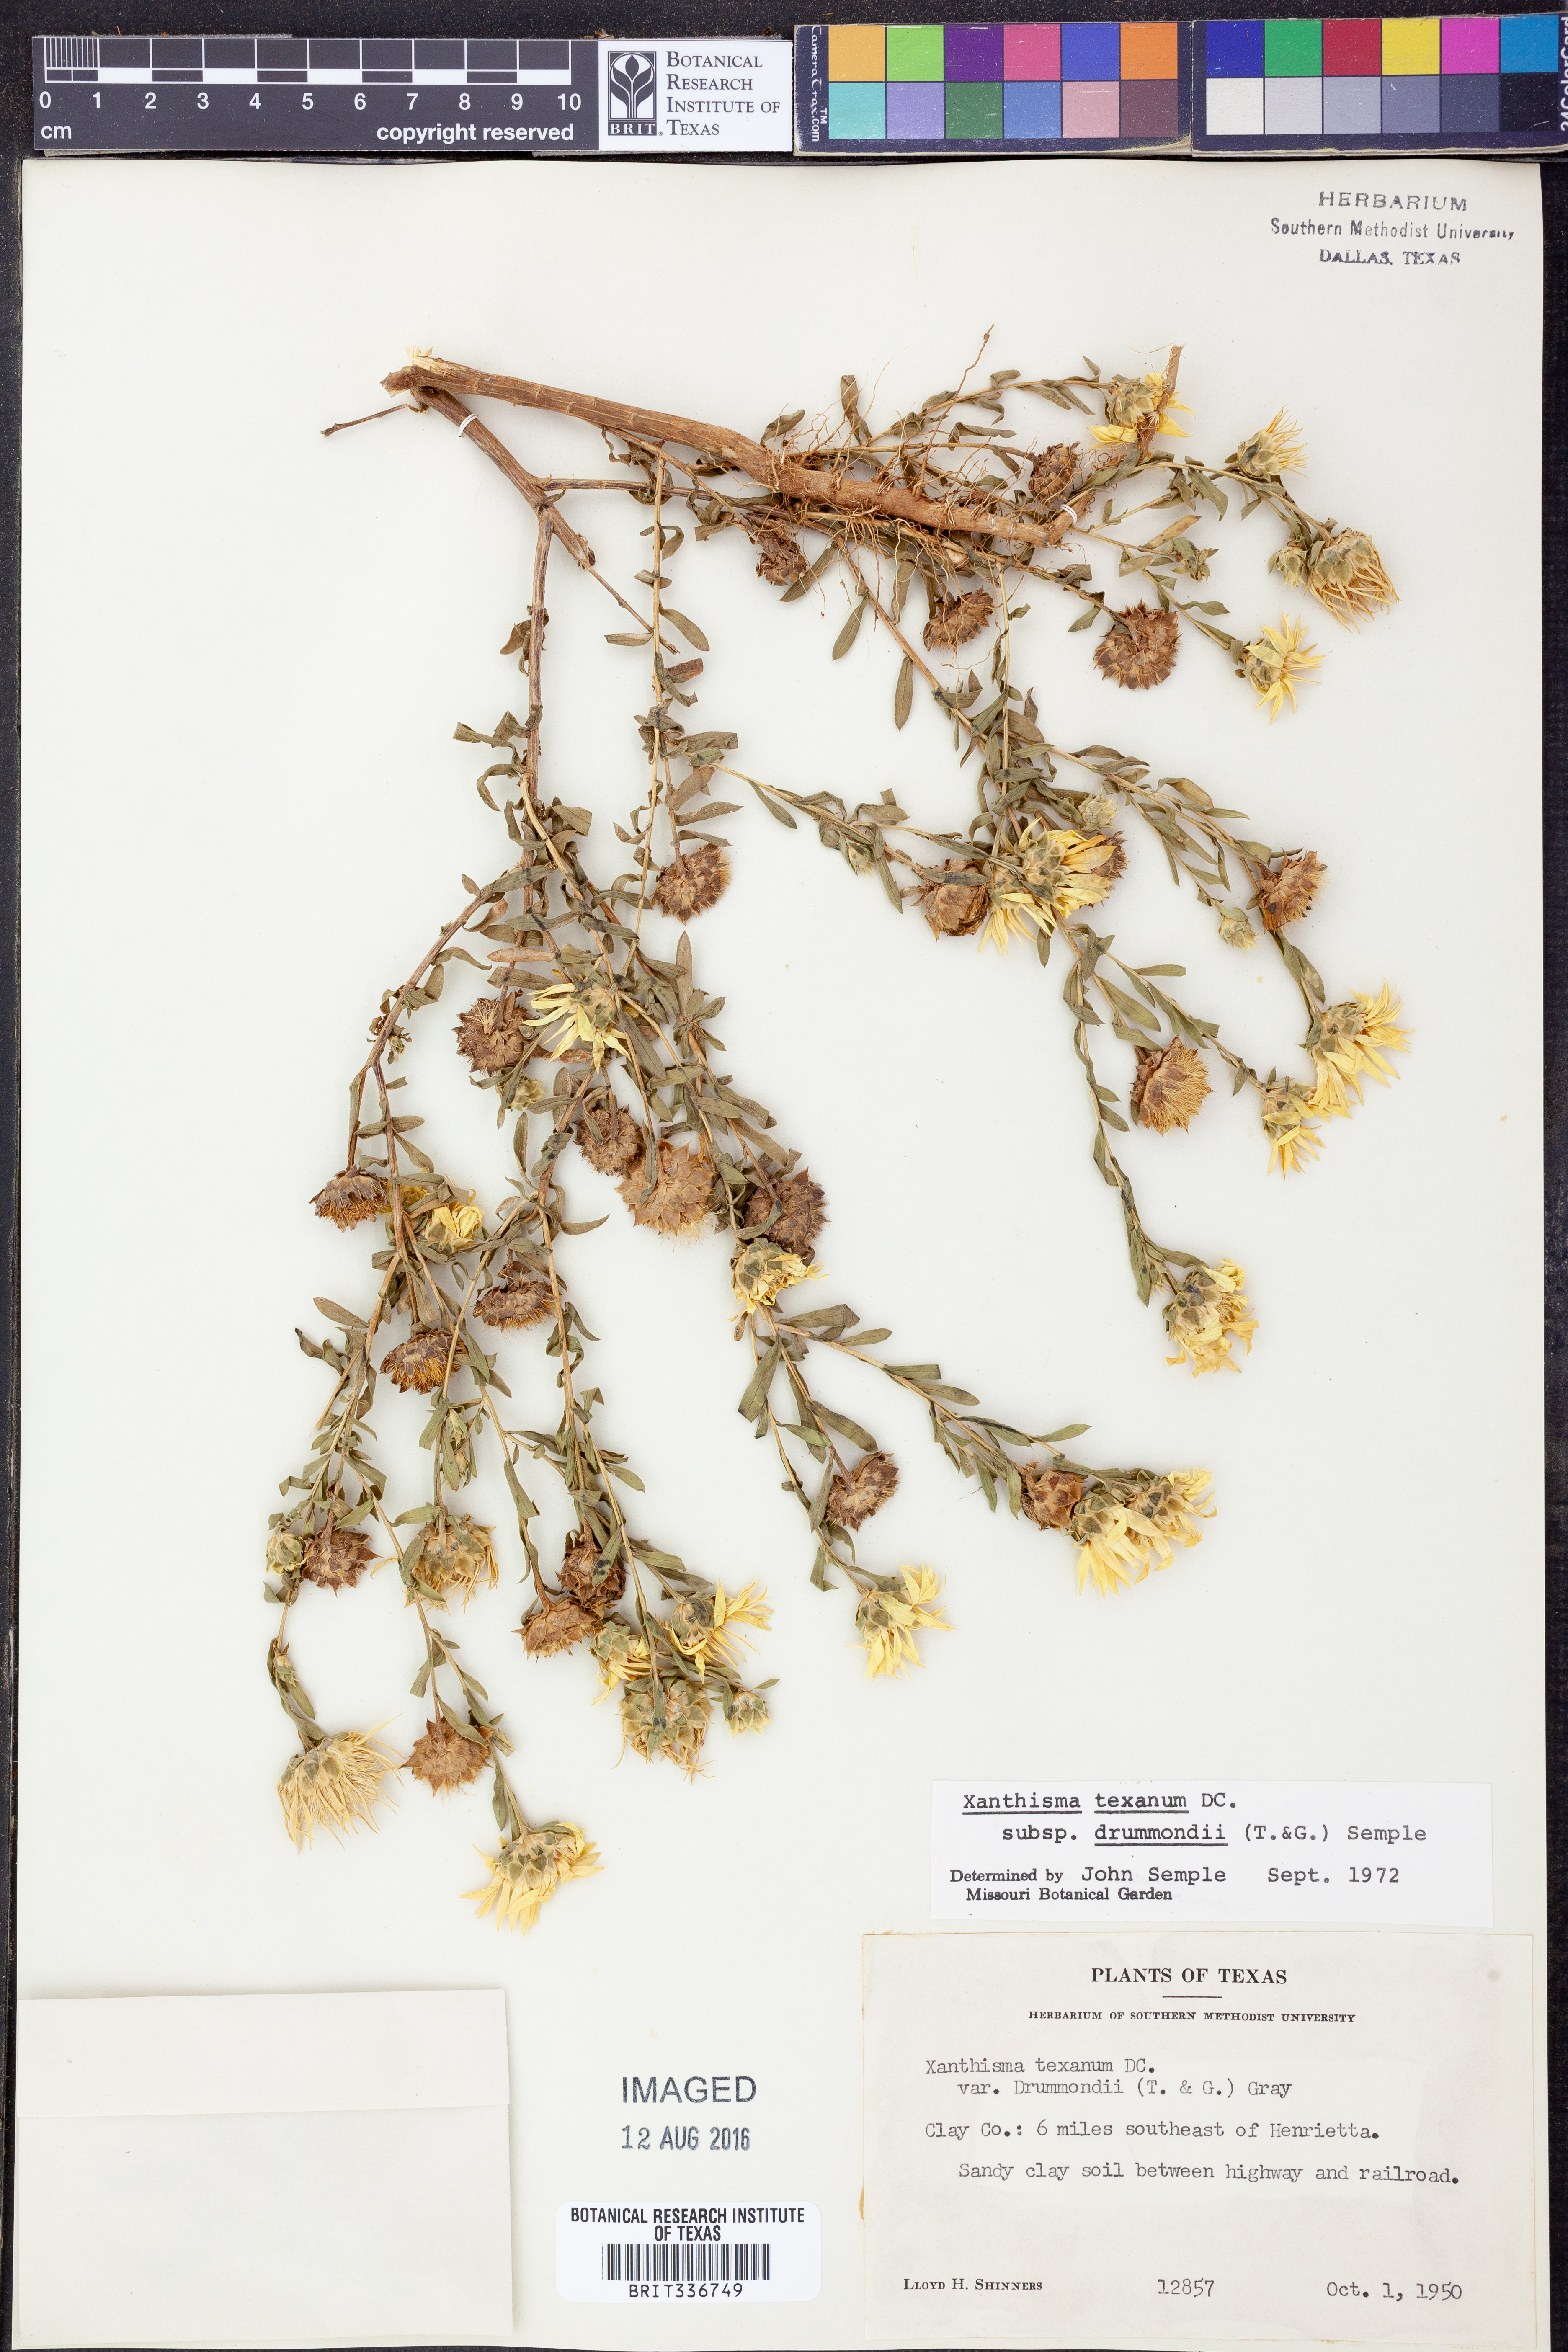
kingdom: Plantae
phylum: Tracheophyta
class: Magnoliopsida
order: Asterales
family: Asteraceae
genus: Xanthisma
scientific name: Xanthisma texanum
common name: Texas sleepy daisy
